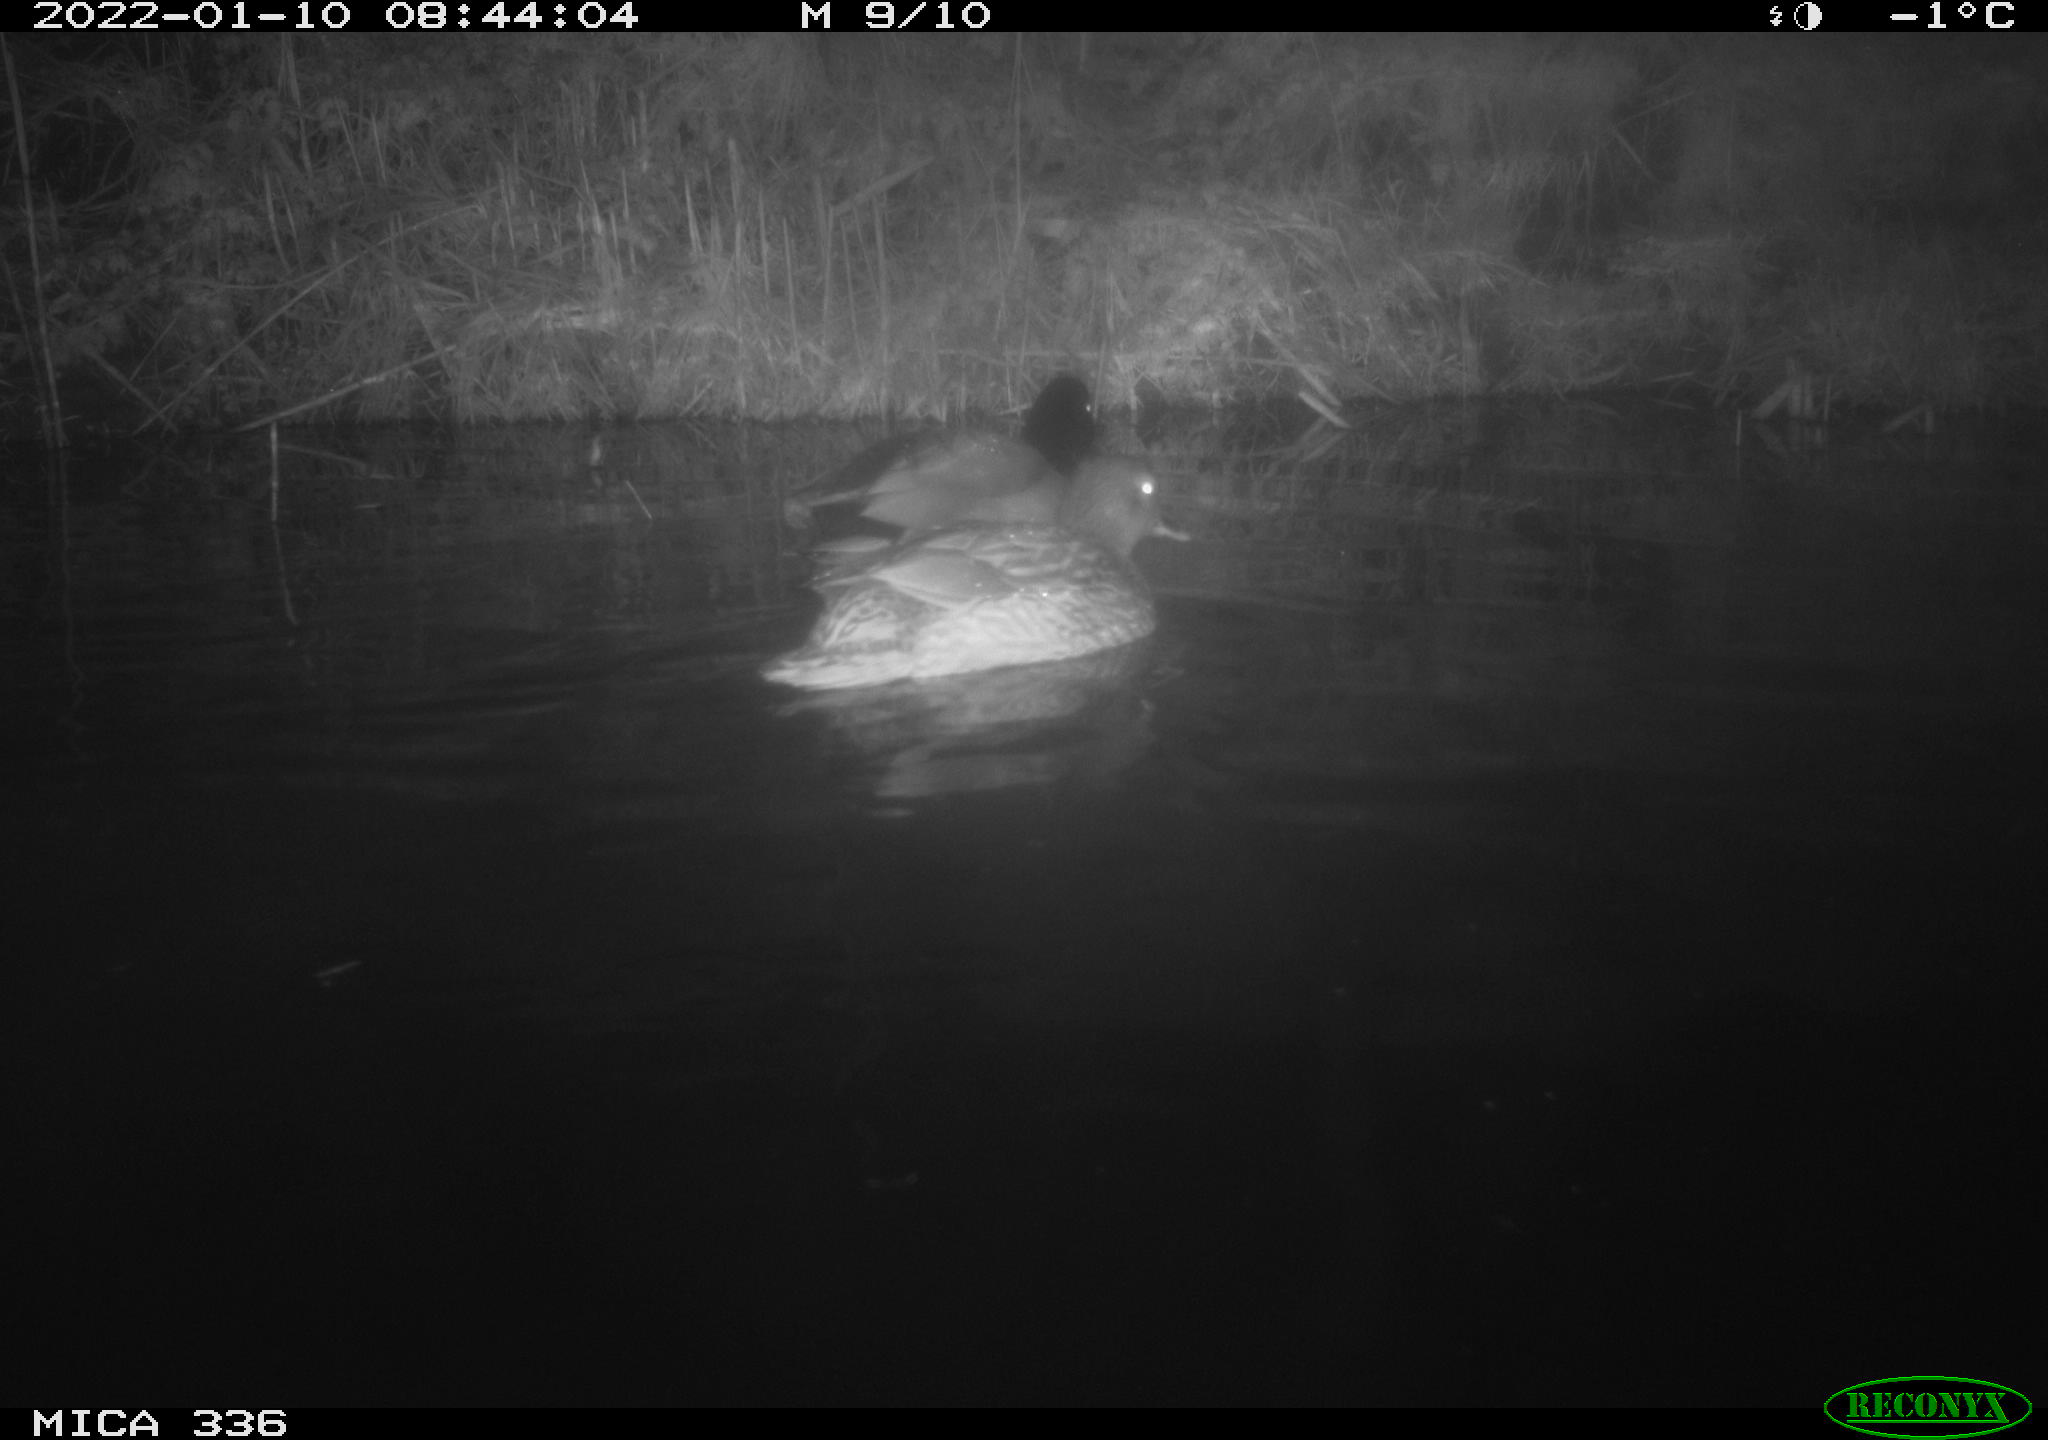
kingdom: Animalia
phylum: Chordata
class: Aves
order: Anseriformes
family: Anatidae
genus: Anas
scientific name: Anas platyrhynchos
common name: Mallard
